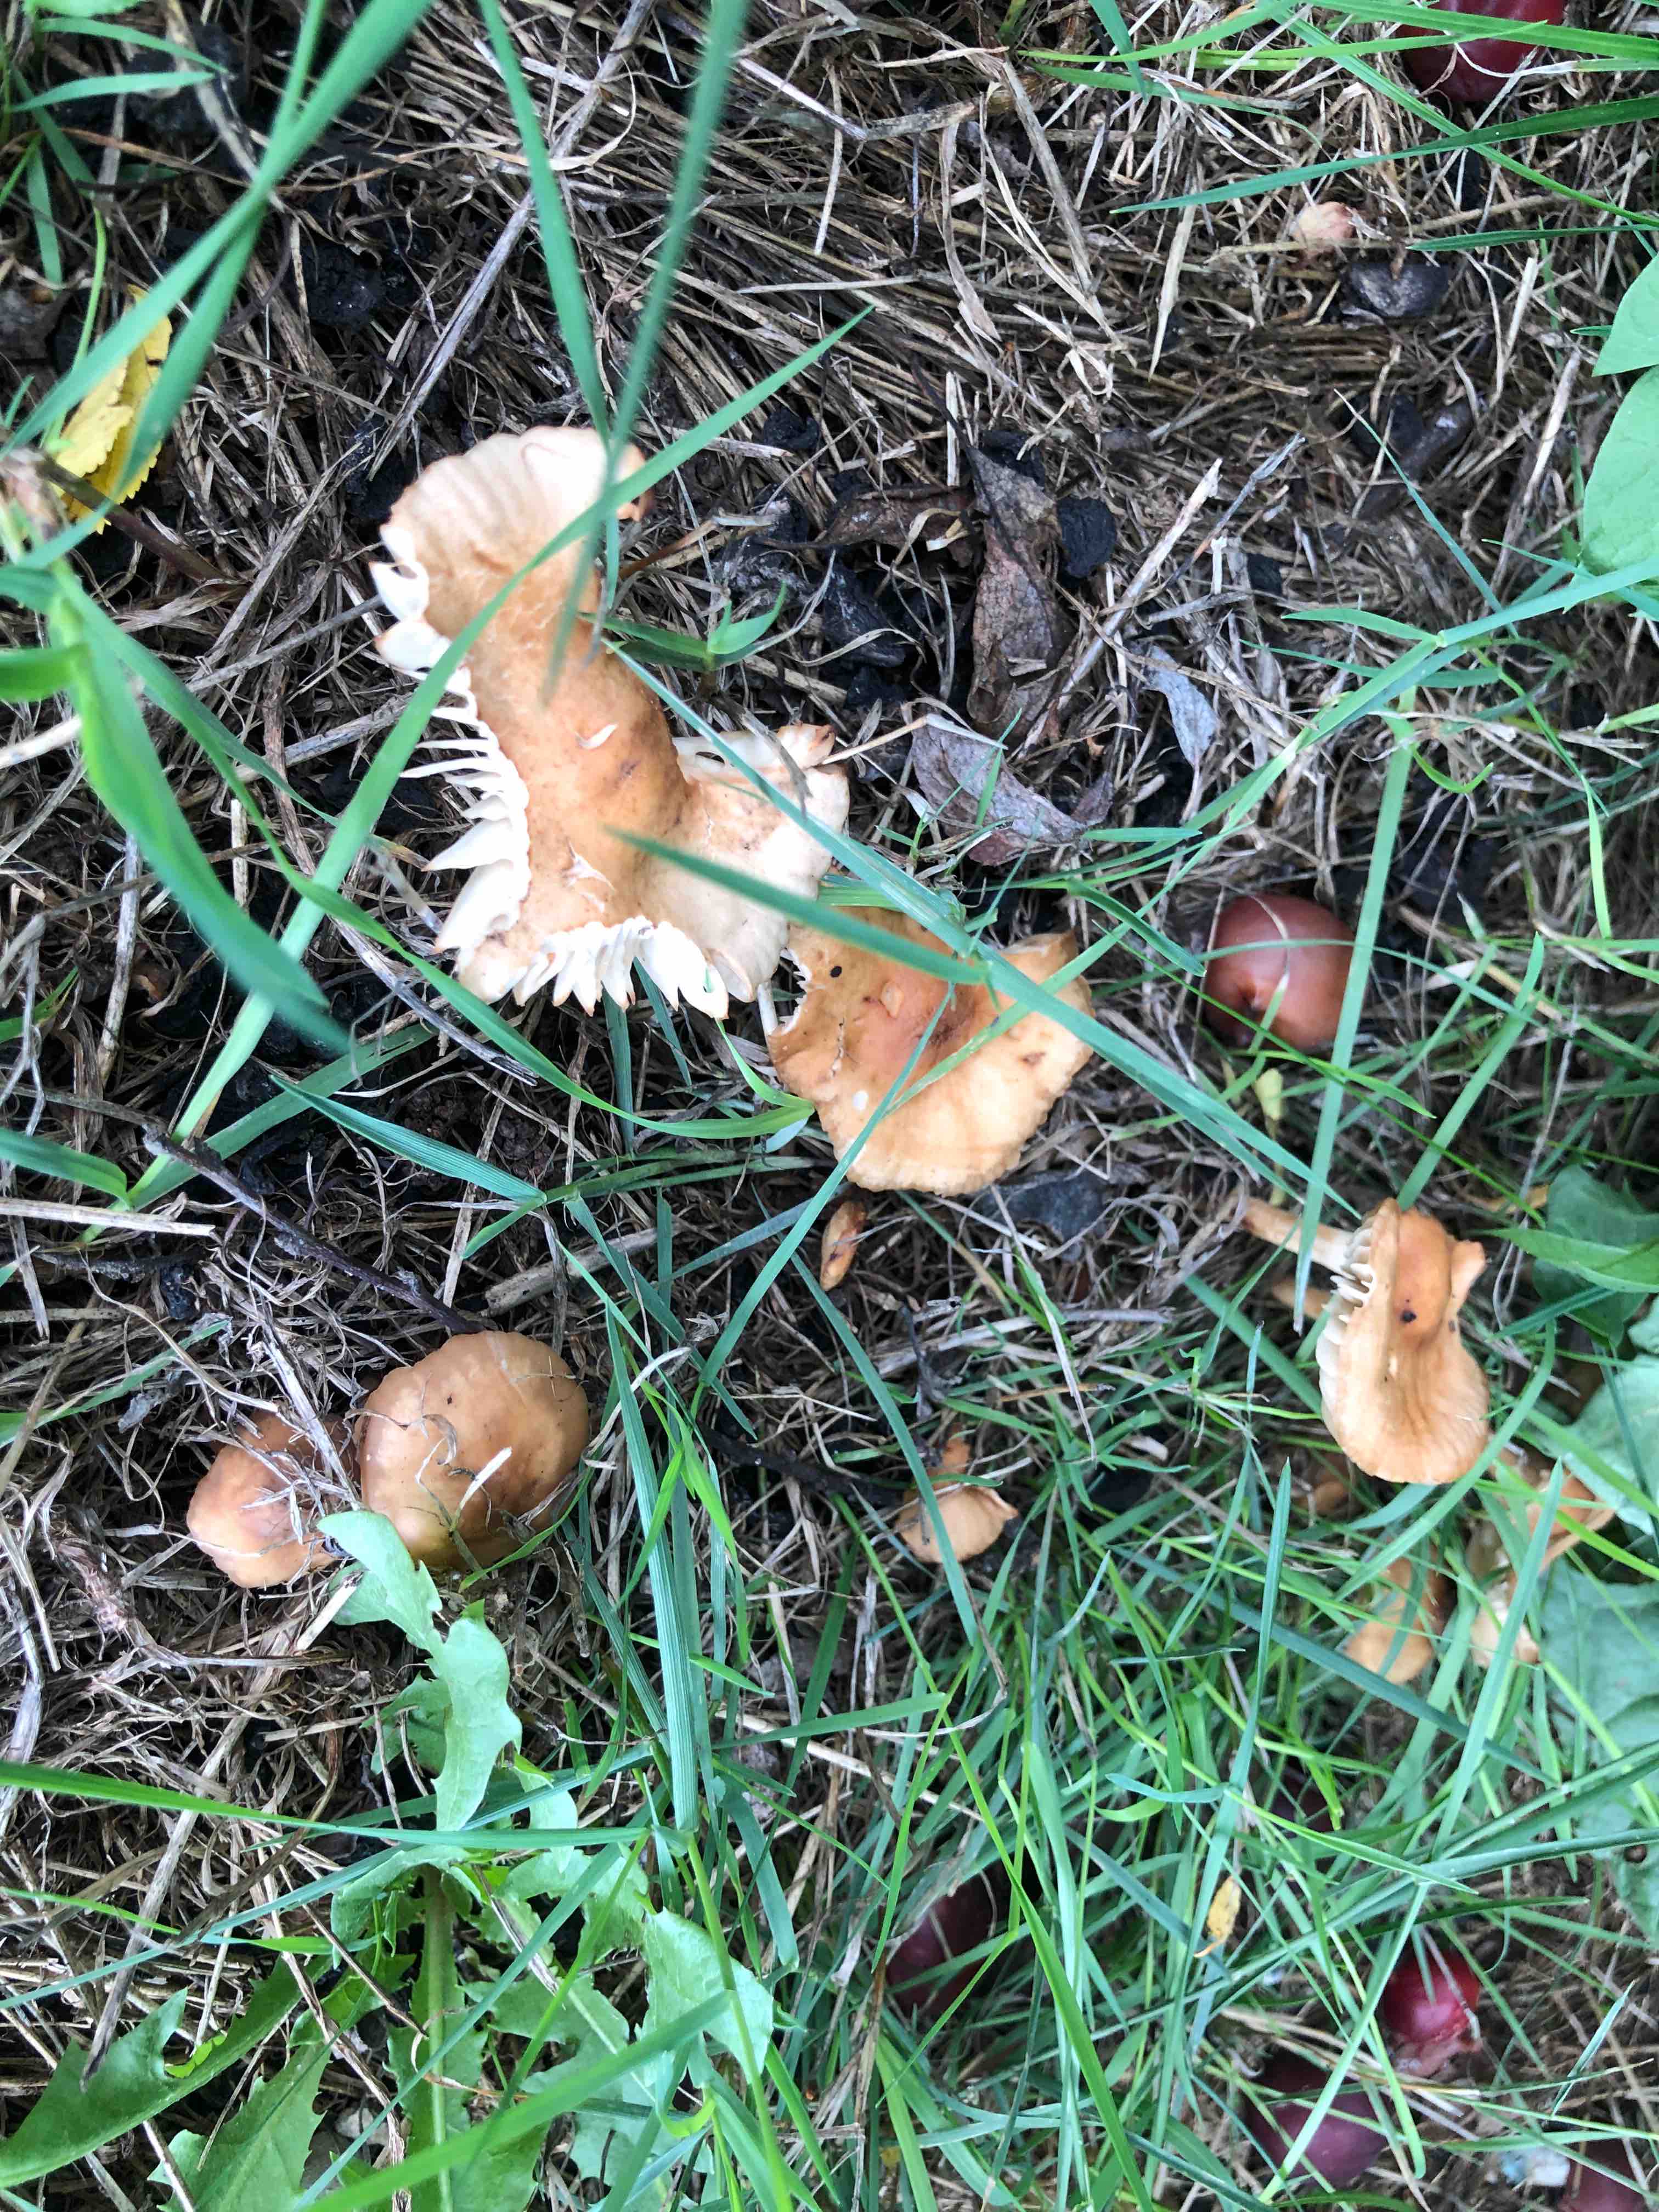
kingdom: Fungi
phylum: Basidiomycota
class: Agaricomycetes
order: Agaricales
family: Marasmiaceae
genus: Marasmius
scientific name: Marasmius oreades
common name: elledans-bruskhat
